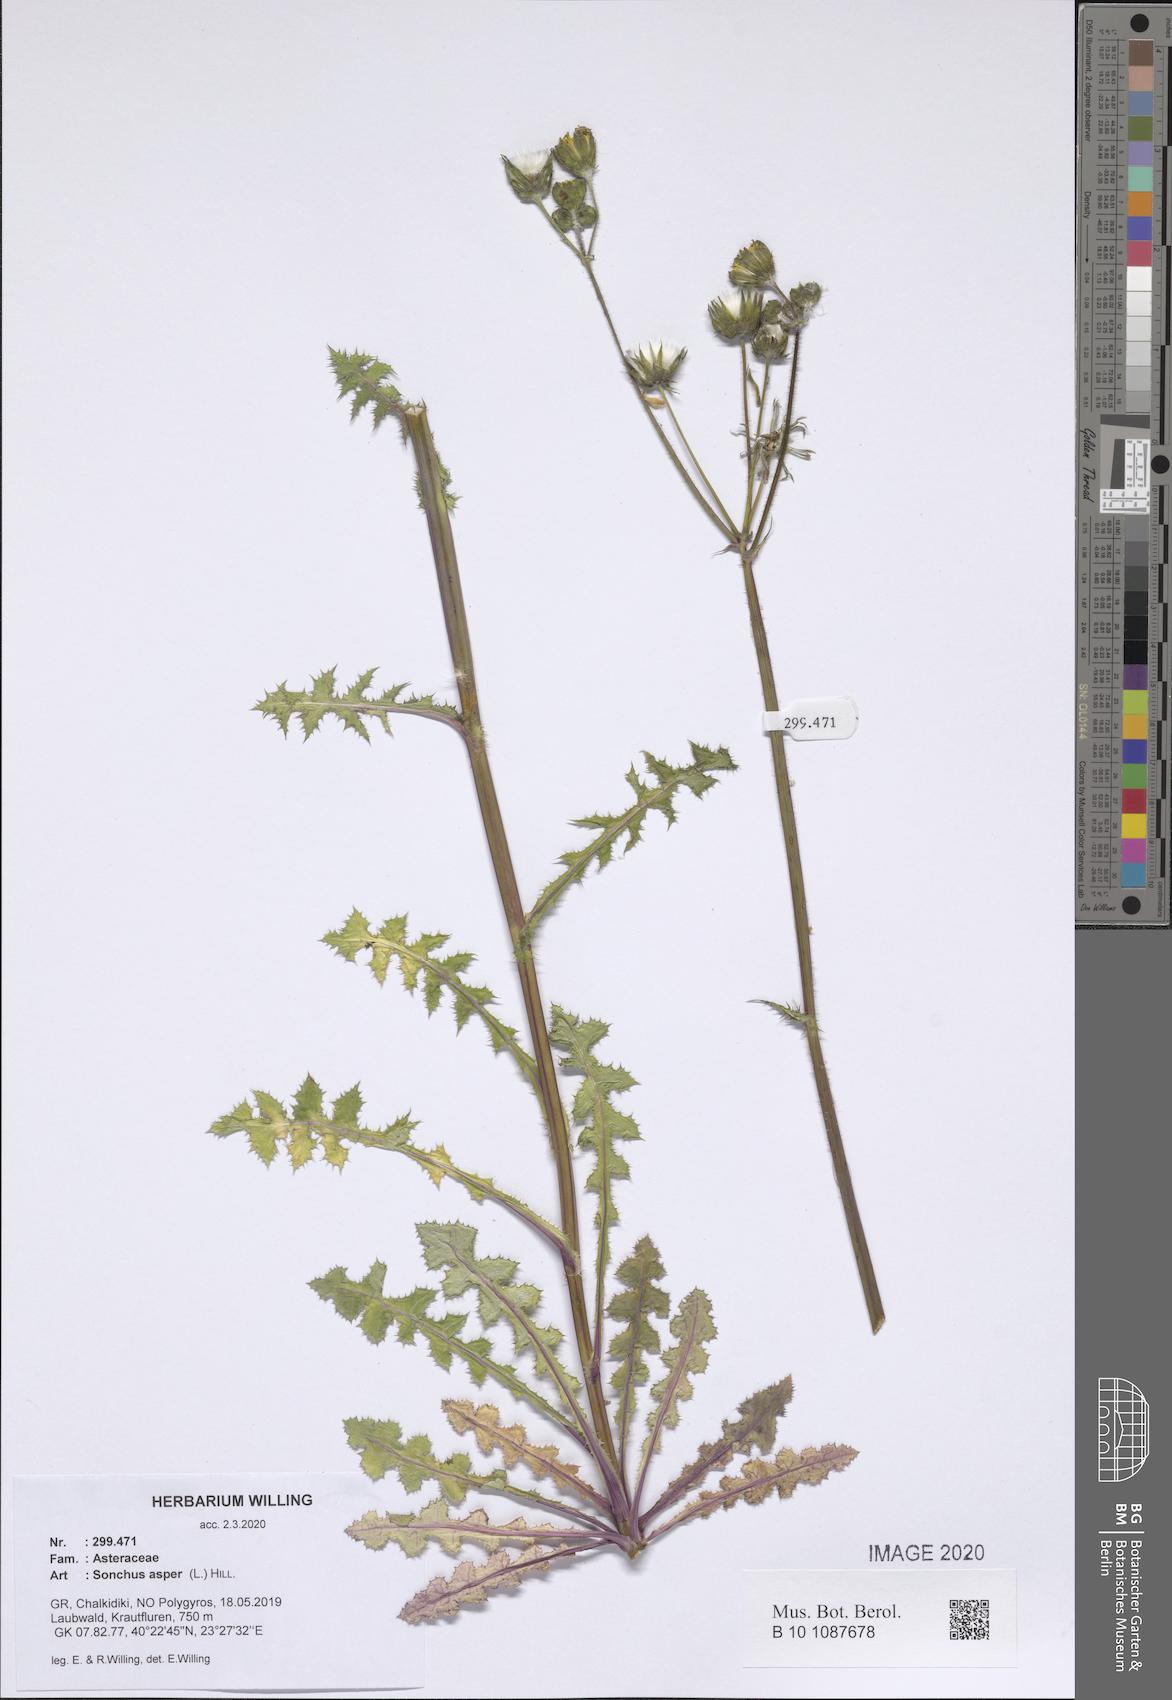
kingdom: Plantae
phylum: Tracheophyta
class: Magnoliopsida
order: Asterales
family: Asteraceae
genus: Sonchus
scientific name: Sonchus asper
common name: Prickly sow-thistle
